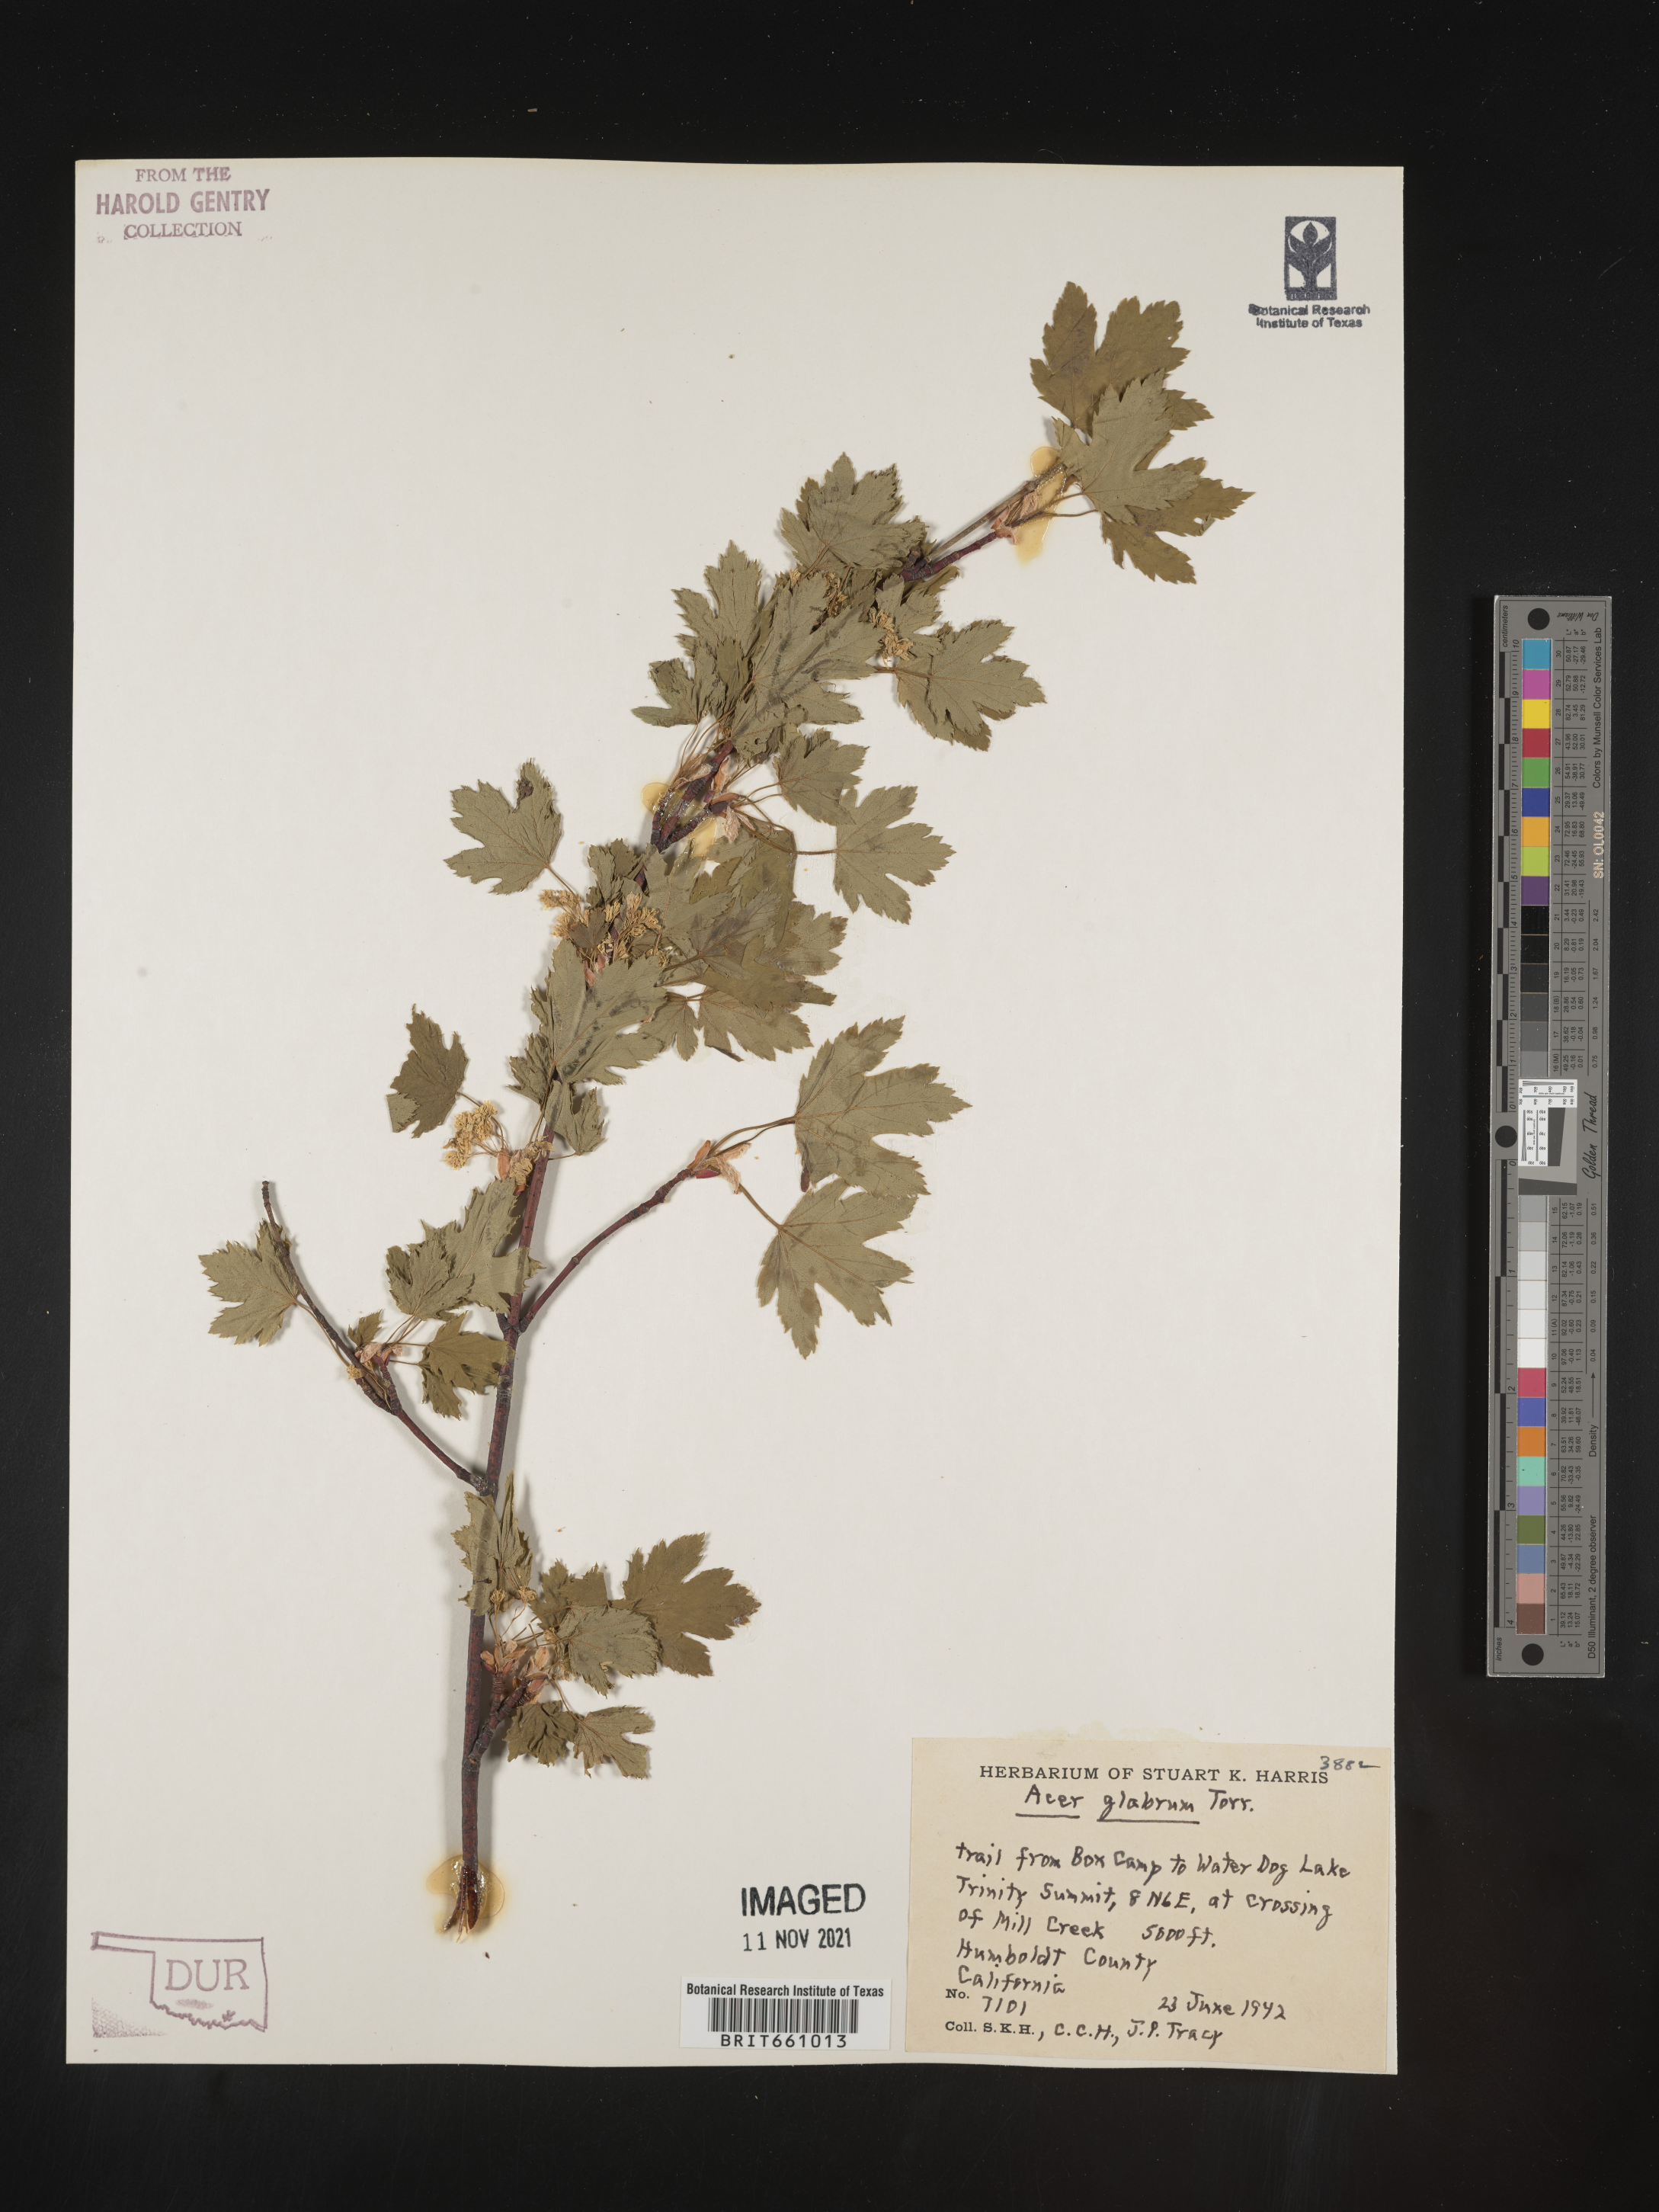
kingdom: Plantae
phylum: Tracheophyta
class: Magnoliopsida
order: Sapindales
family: Sapindaceae
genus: Acer
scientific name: Acer glabrum
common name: Rocky mountain maple
